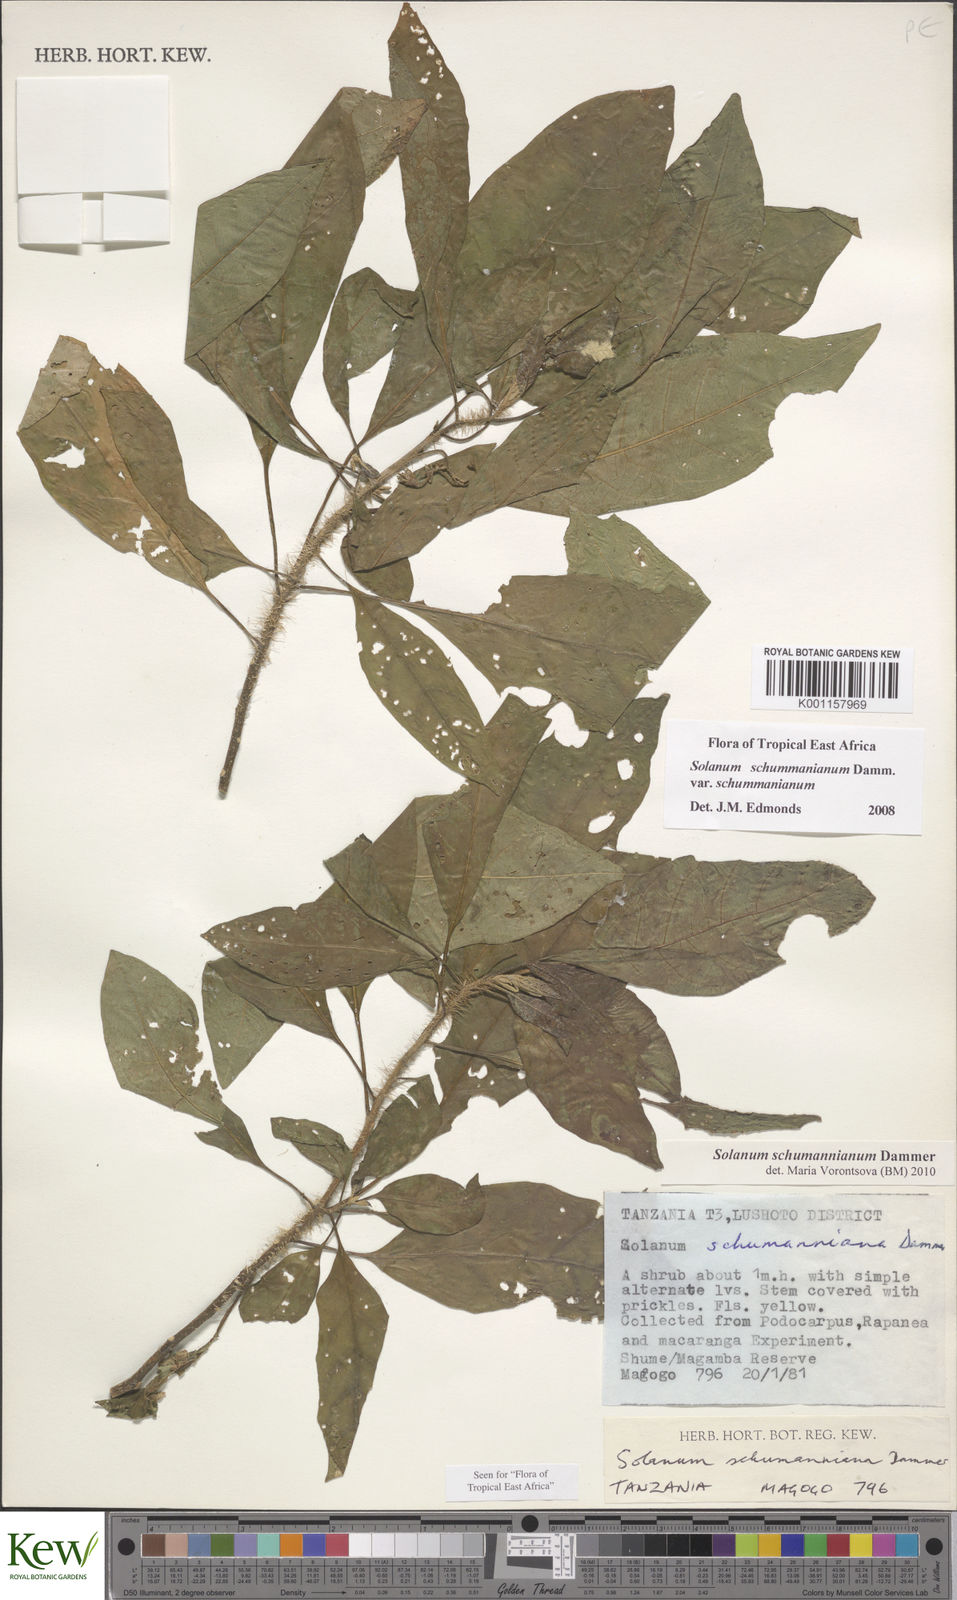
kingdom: Plantae
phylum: Tracheophyta
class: Magnoliopsida
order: Solanales
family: Solanaceae
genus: Solanum
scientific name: Solanum schumannianum
